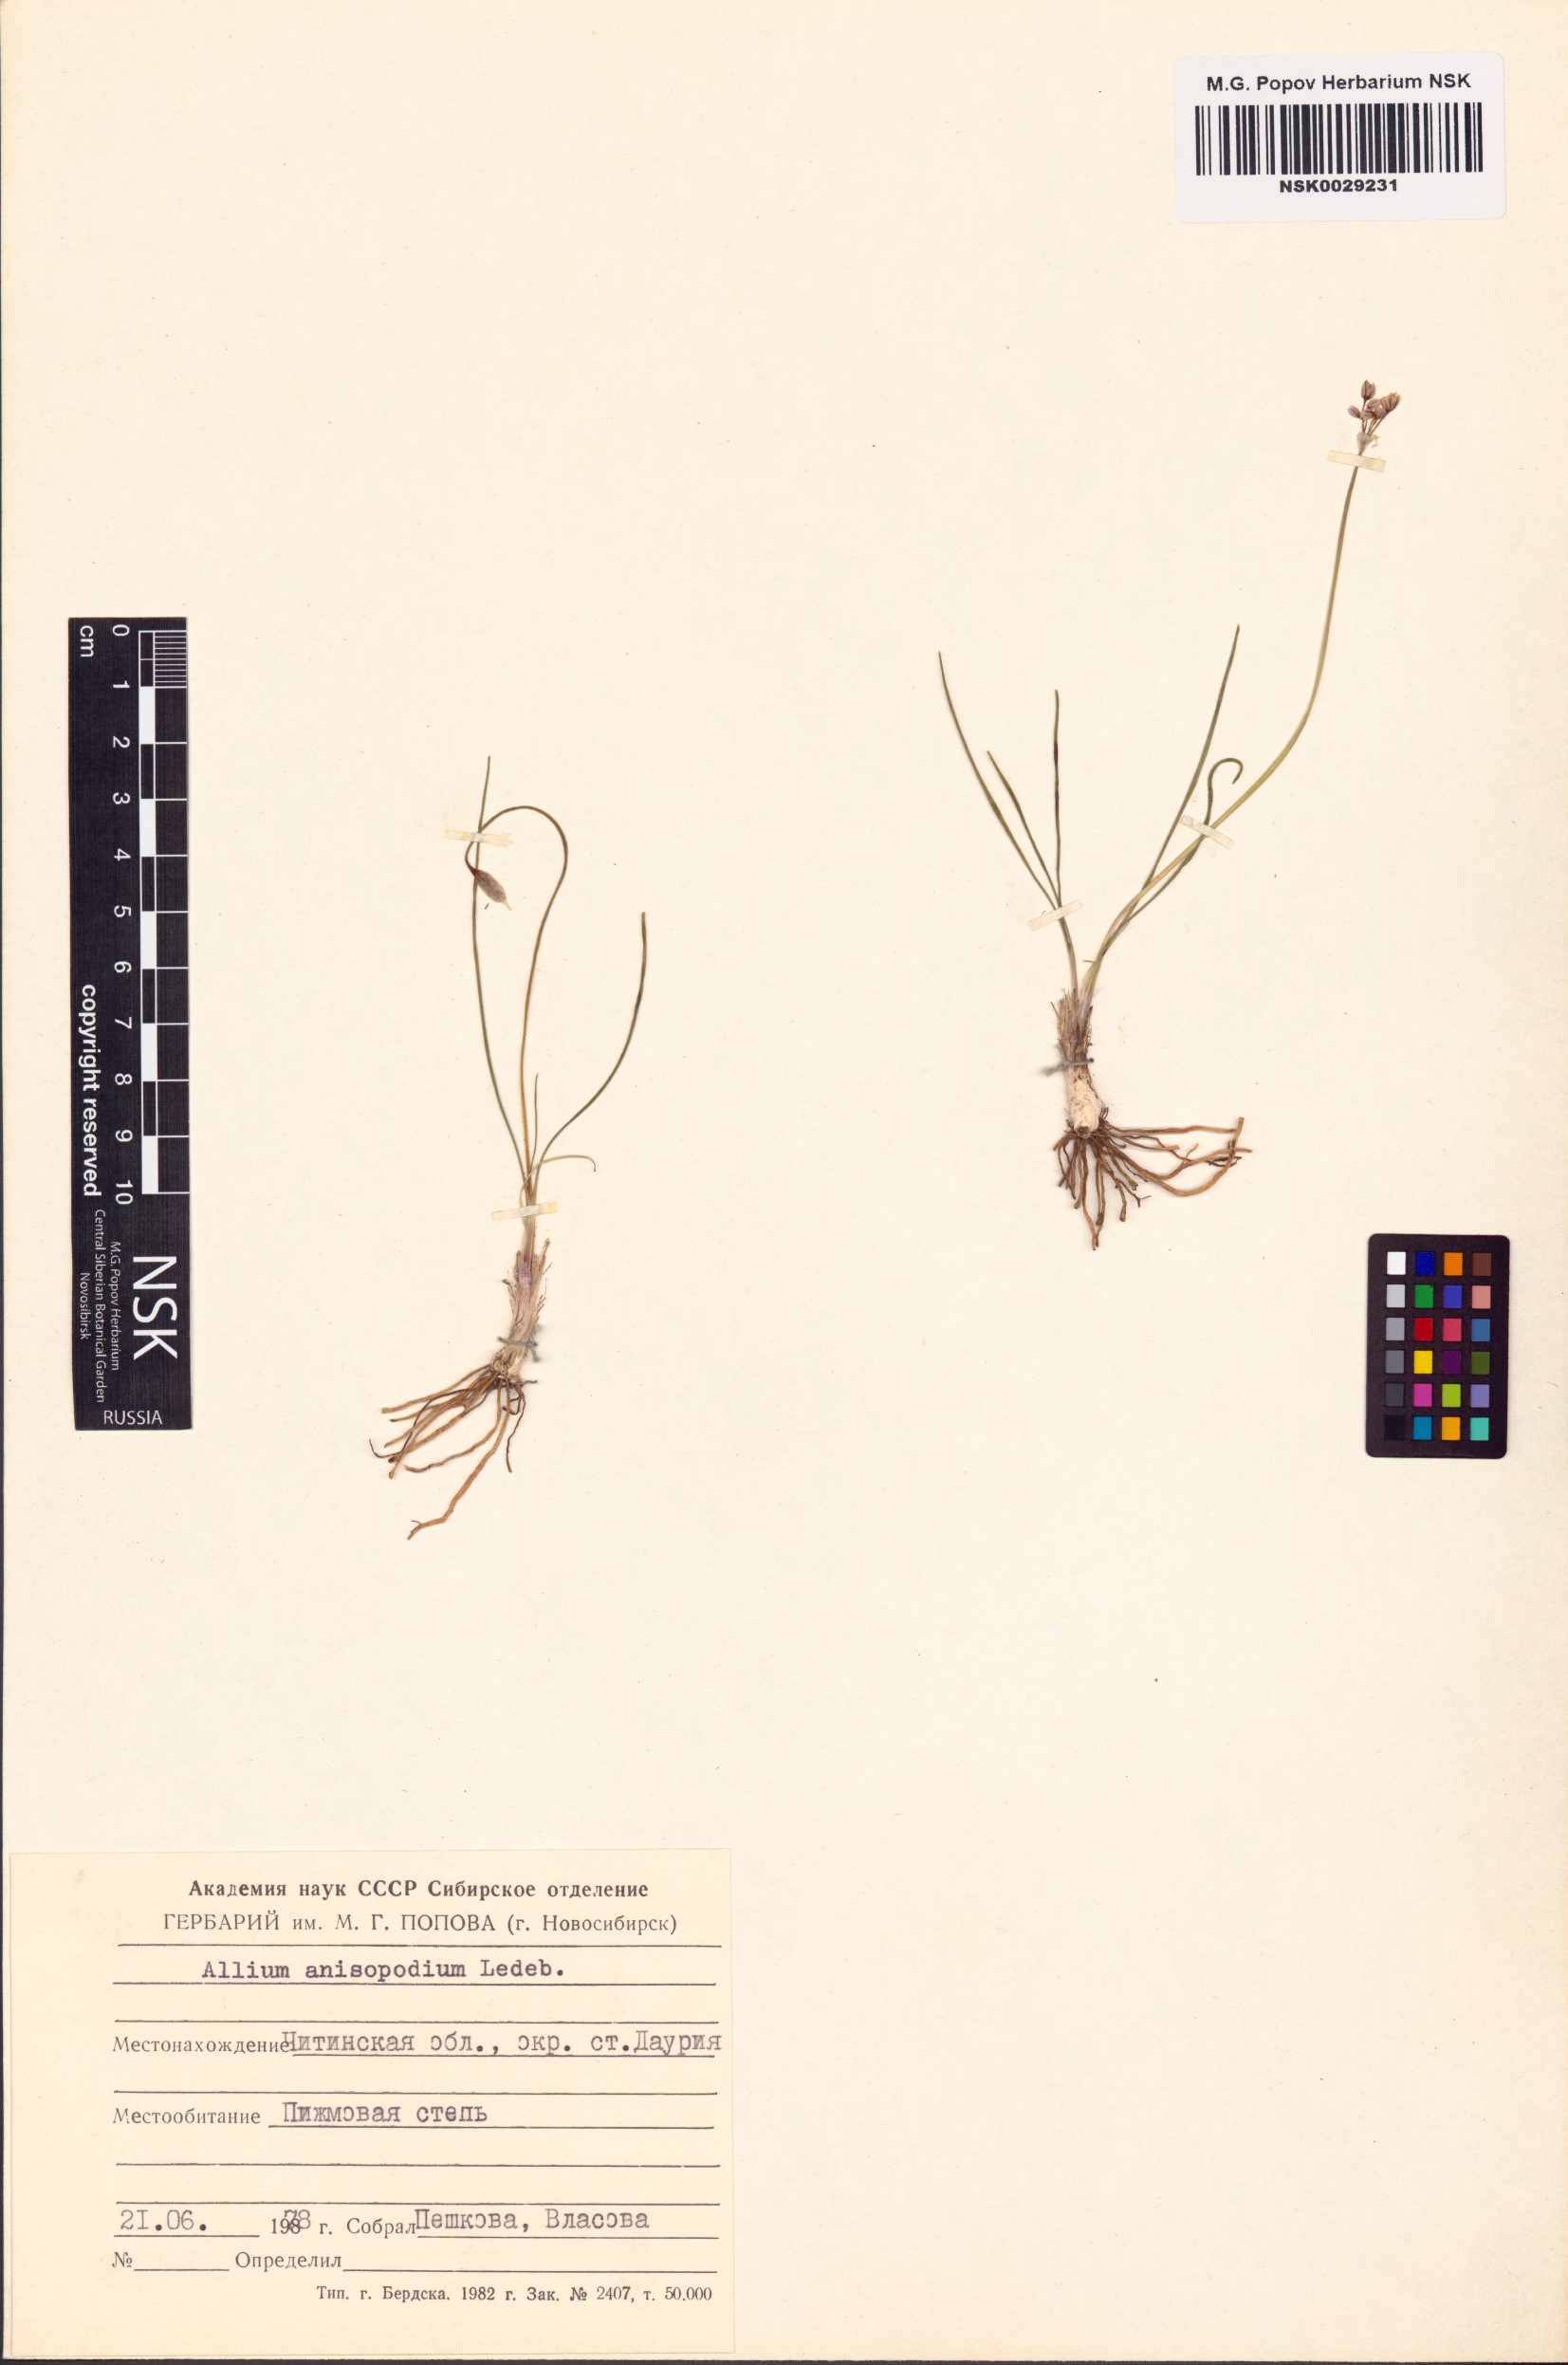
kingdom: Plantae
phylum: Tracheophyta
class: Liliopsida
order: Asparagales
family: Amaryllidaceae
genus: Allium
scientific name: Allium anisopodium
